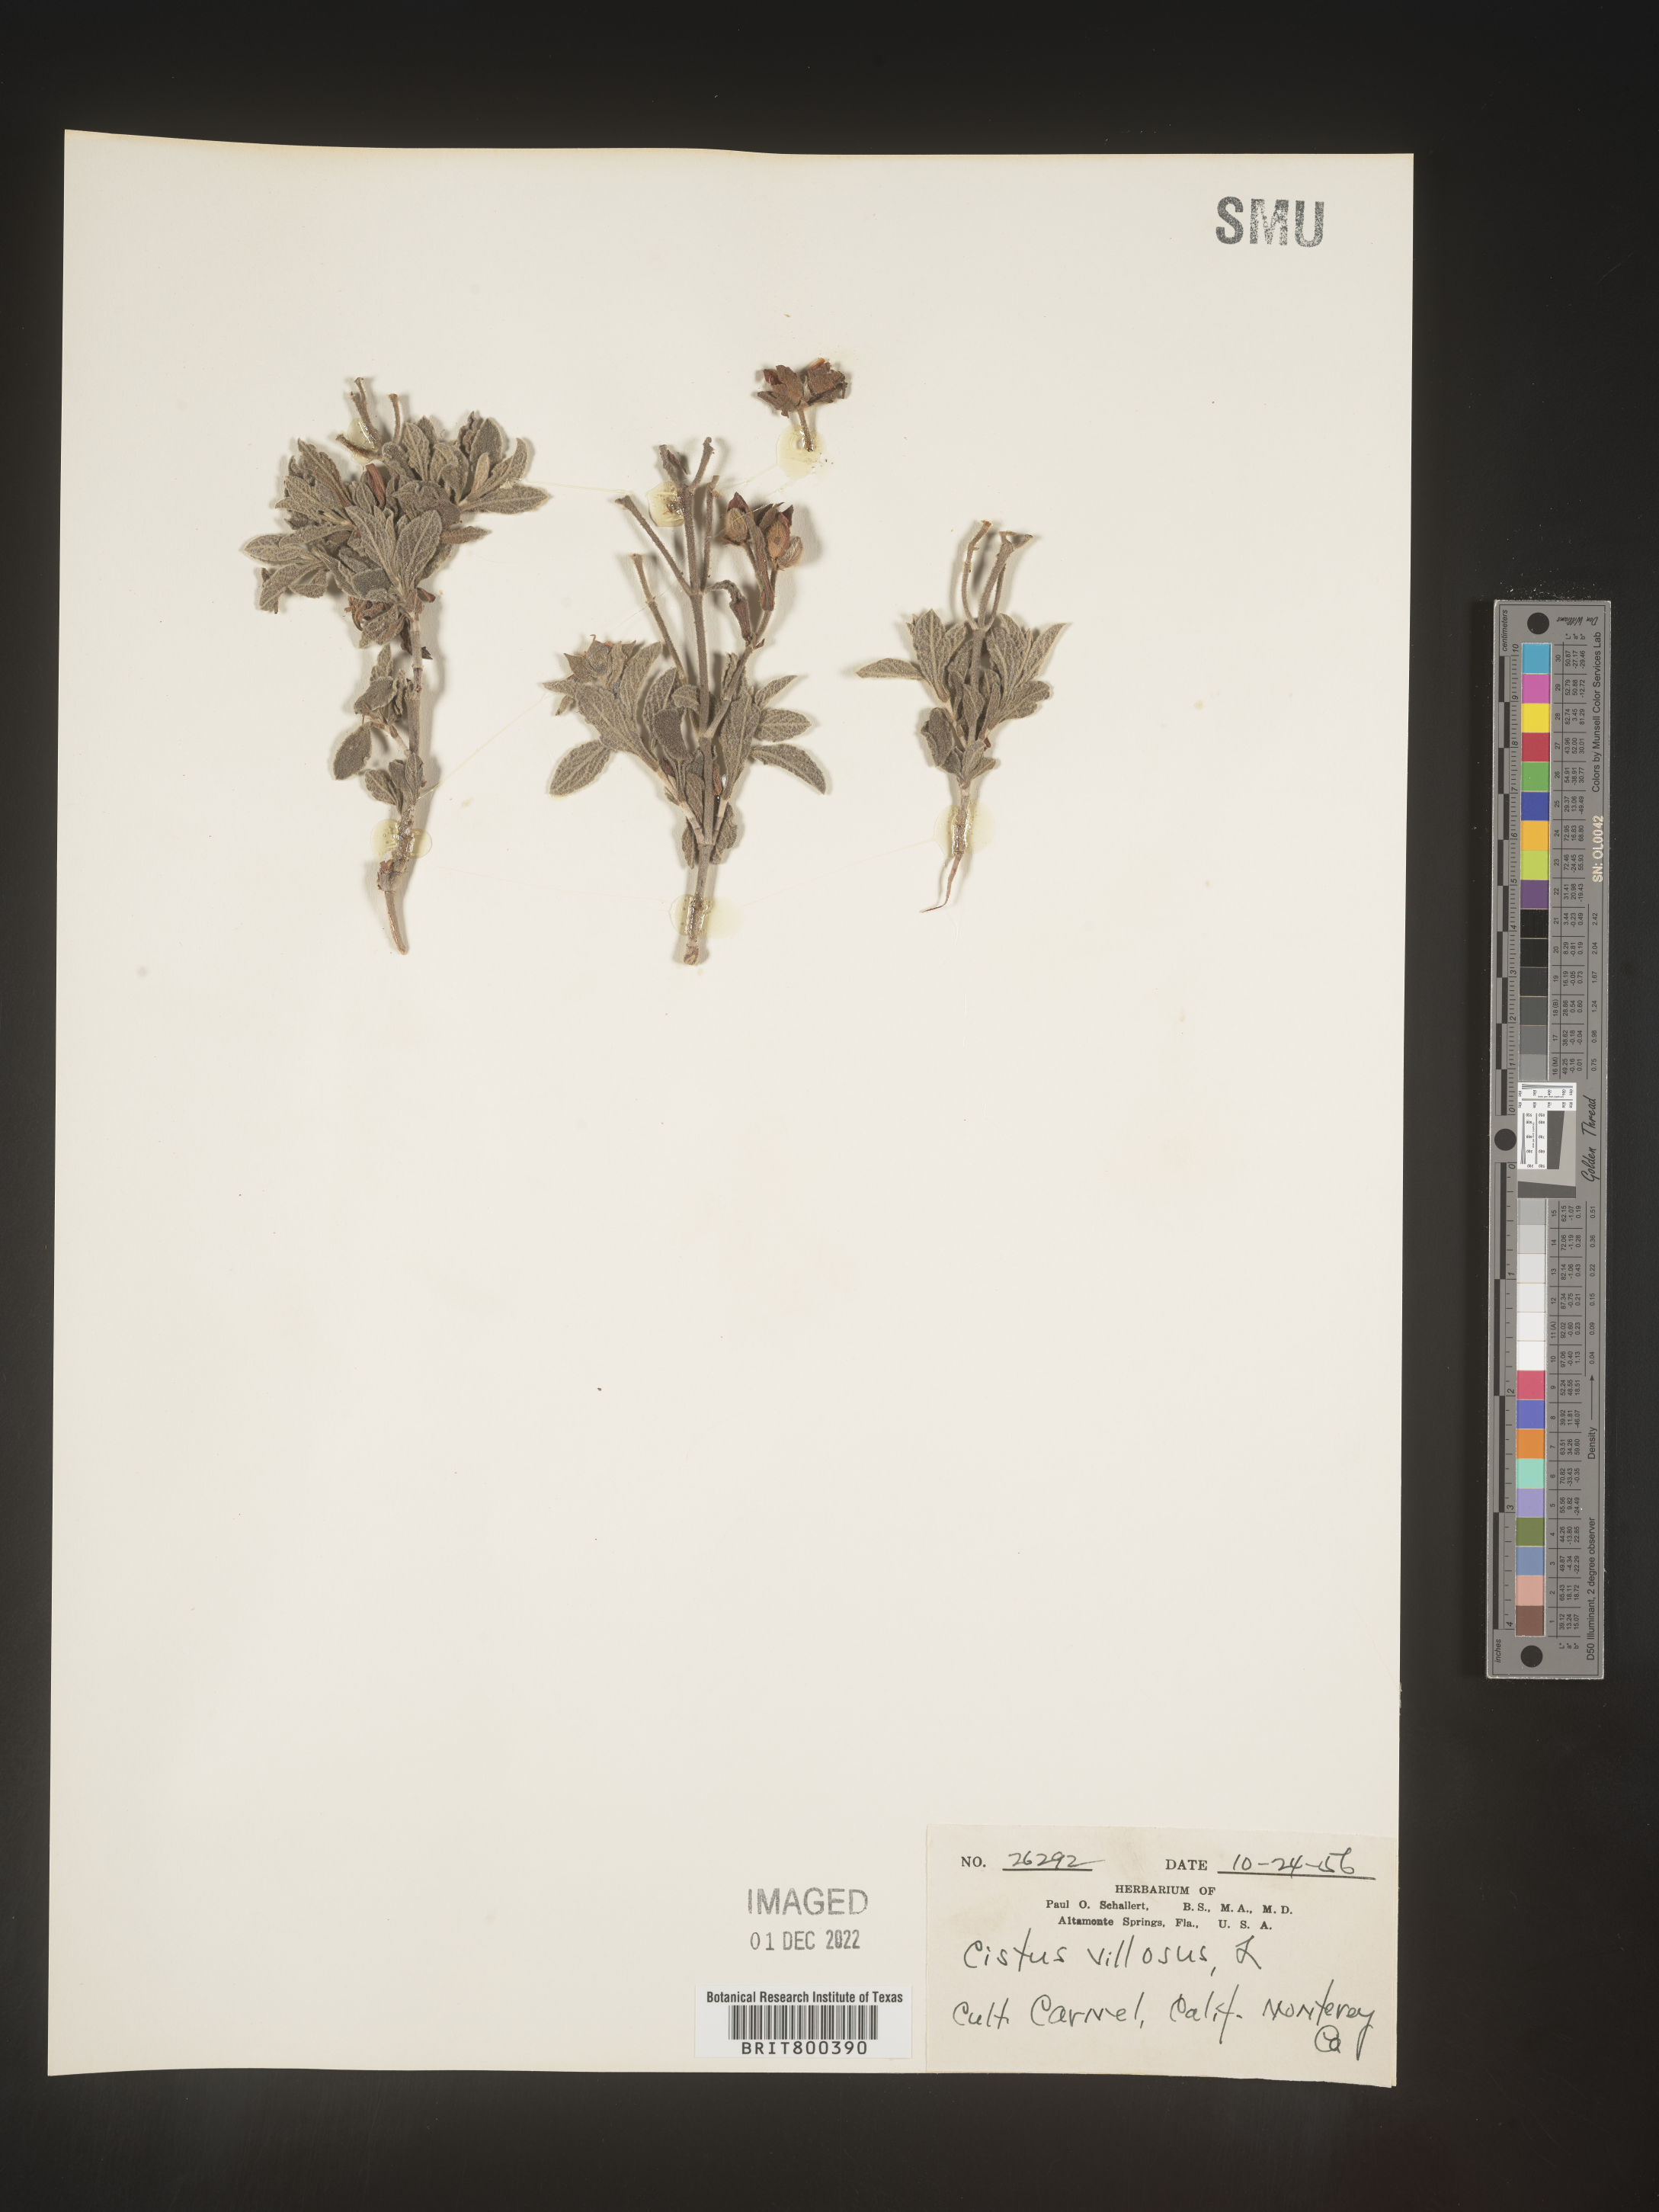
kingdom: Plantae
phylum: Tracheophyta
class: Magnoliopsida
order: Malvales
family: Cistaceae
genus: Cistus
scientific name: Cistus
